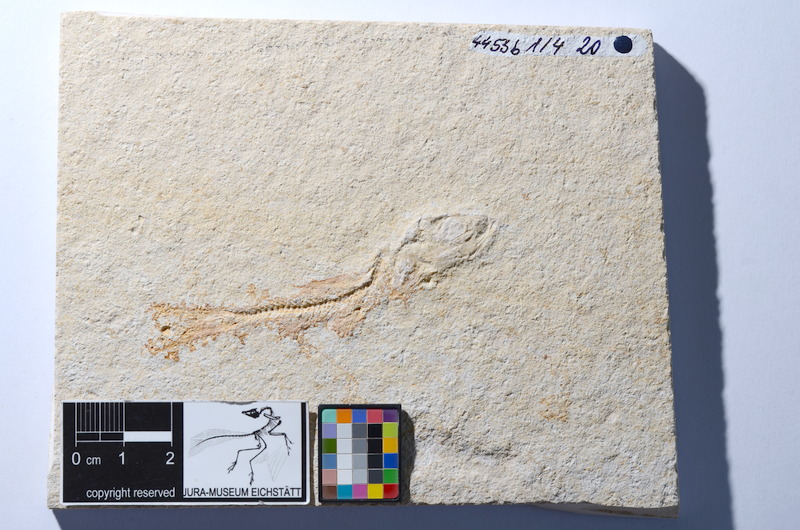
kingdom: Animalia
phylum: Chordata
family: Ascalaboidae
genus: Tharsis
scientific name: Tharsis dubius
